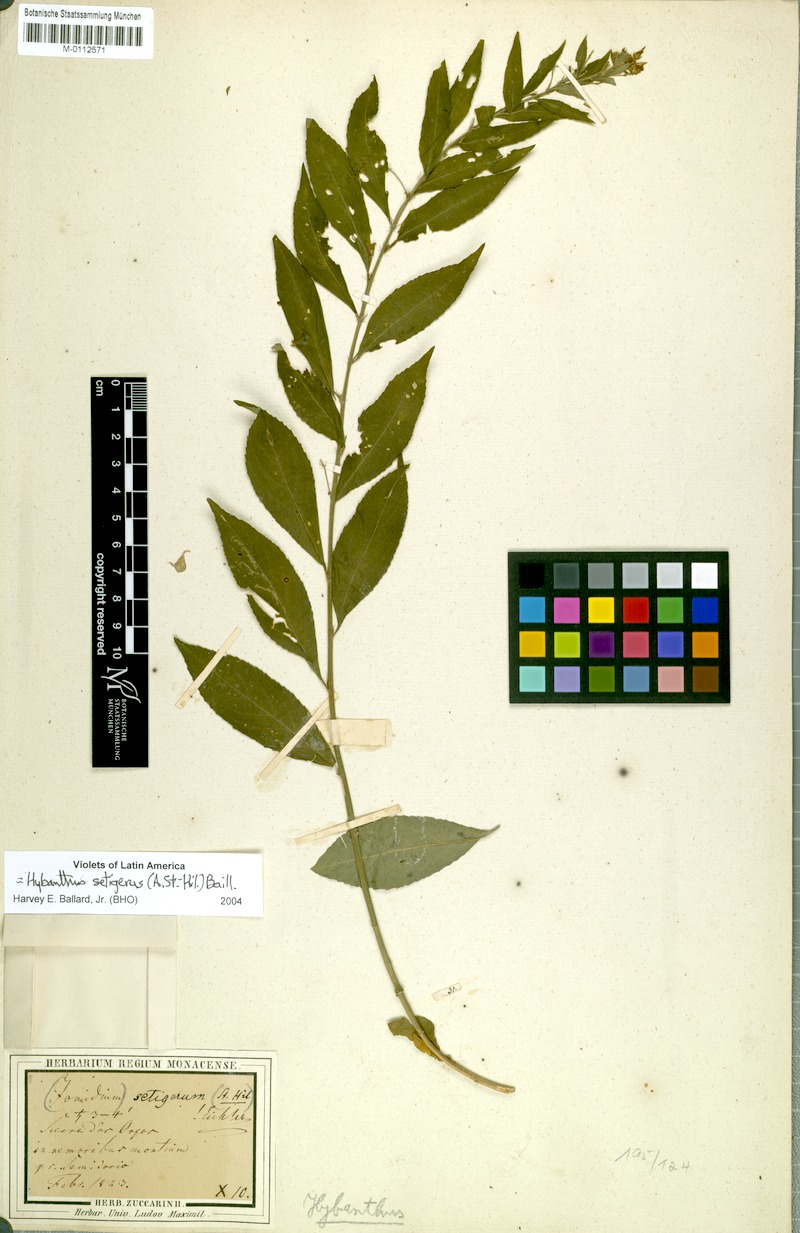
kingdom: Plantae
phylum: Tracheophyta
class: Magnoliopsida
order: Malpighiales
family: Violaceae
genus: Pombalia
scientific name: Pombalia setigera
